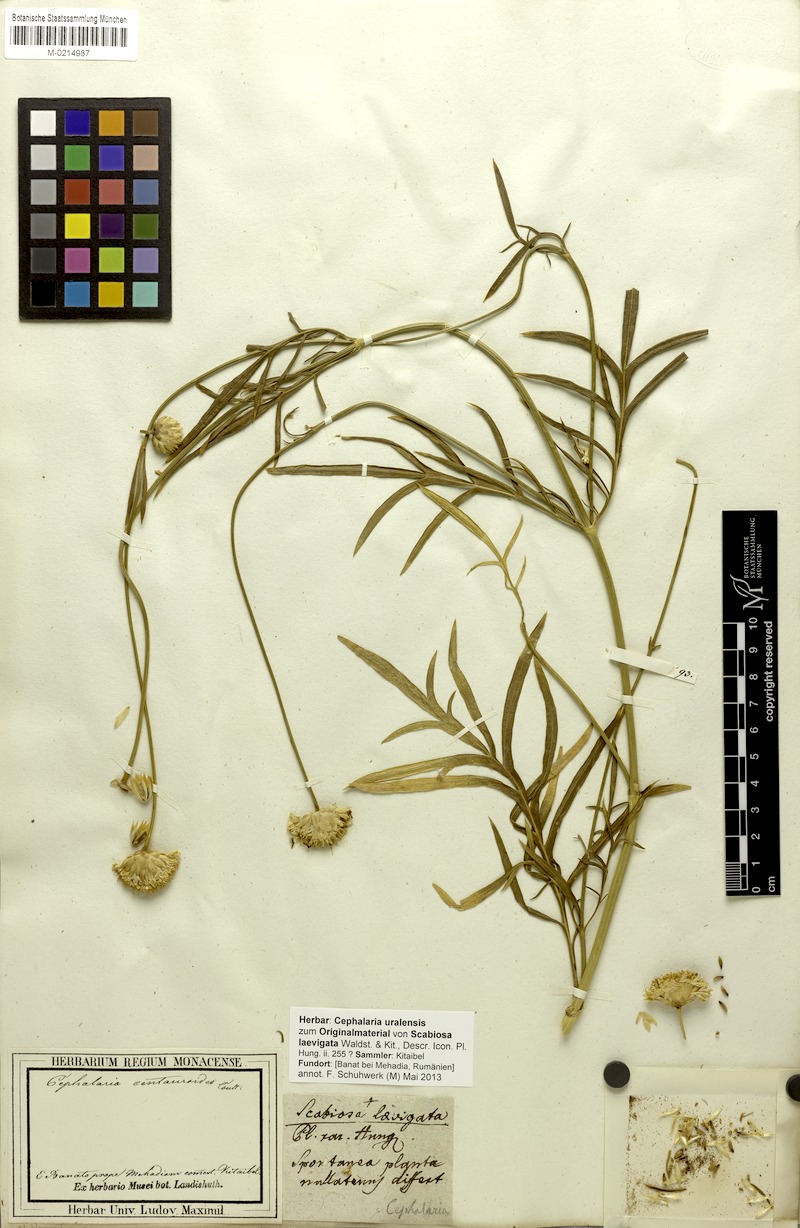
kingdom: Plantae
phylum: Tracheophyta
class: Magnoliopsida
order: Dipsacales
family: Caprifoliaceae
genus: Cephalaria
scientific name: Cephalaria uralensis
